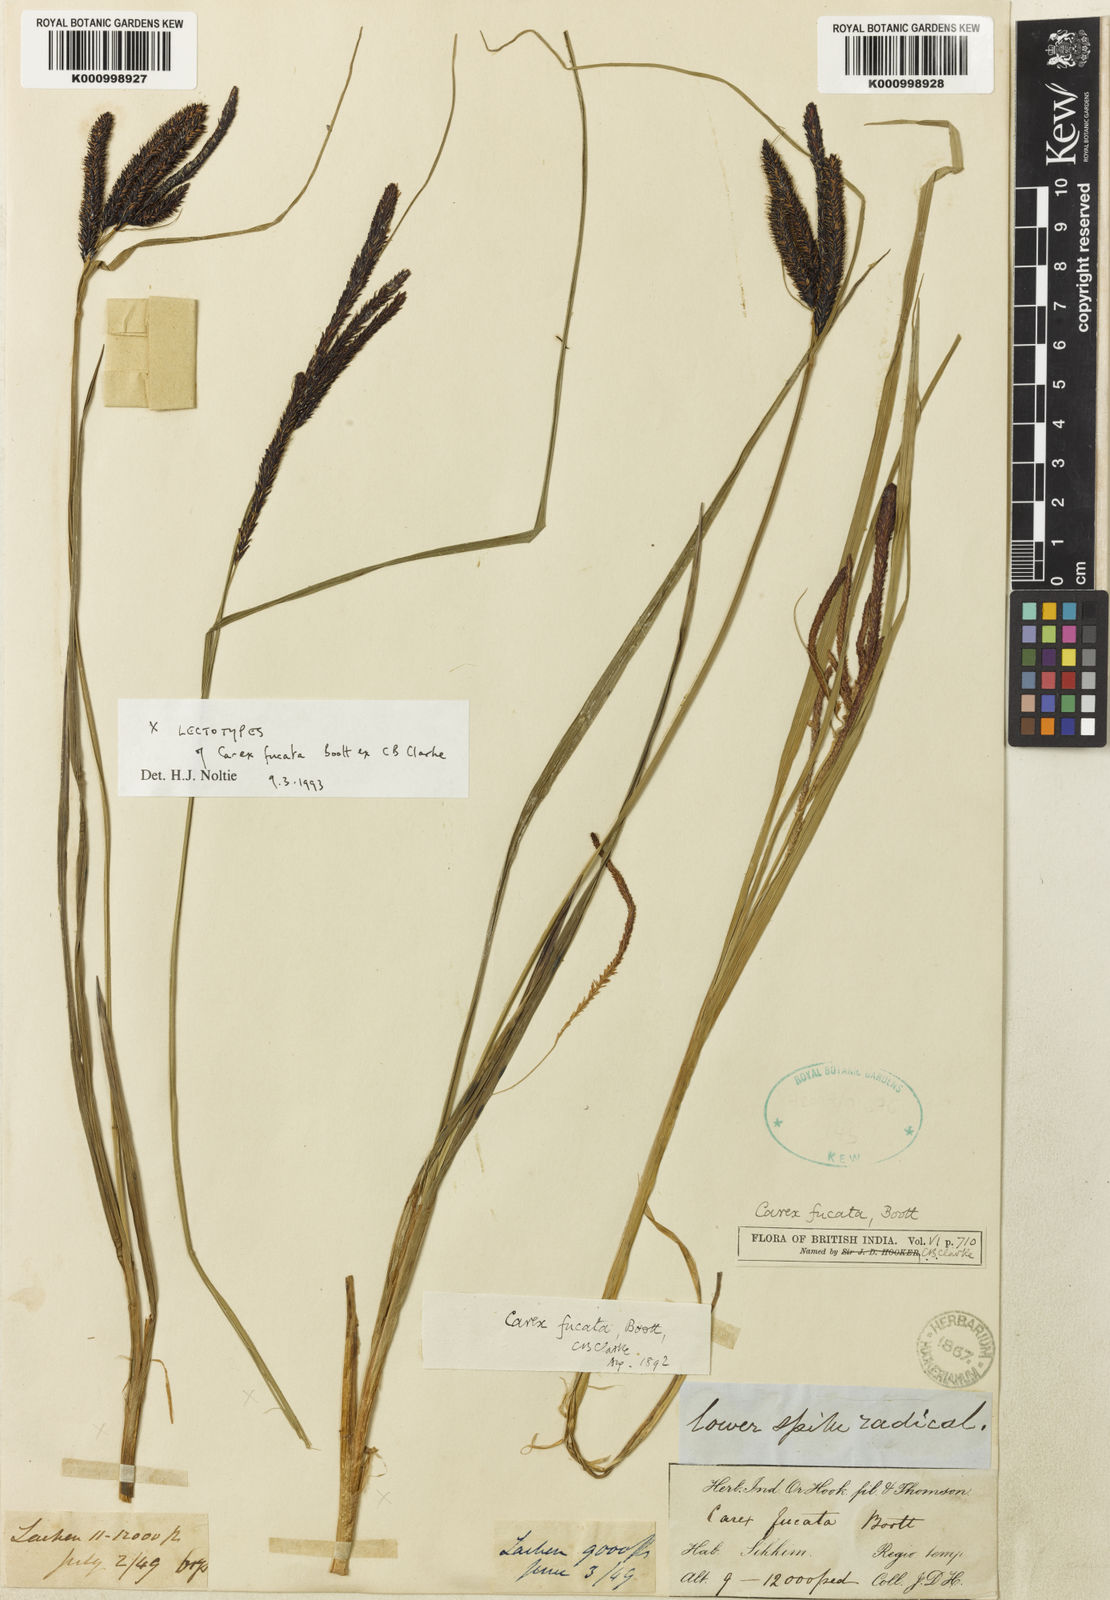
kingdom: Plantae
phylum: Tracheophyta
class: Liliopsida
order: Poales
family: Cyperaceae
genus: Carex
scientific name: Carex fucata
